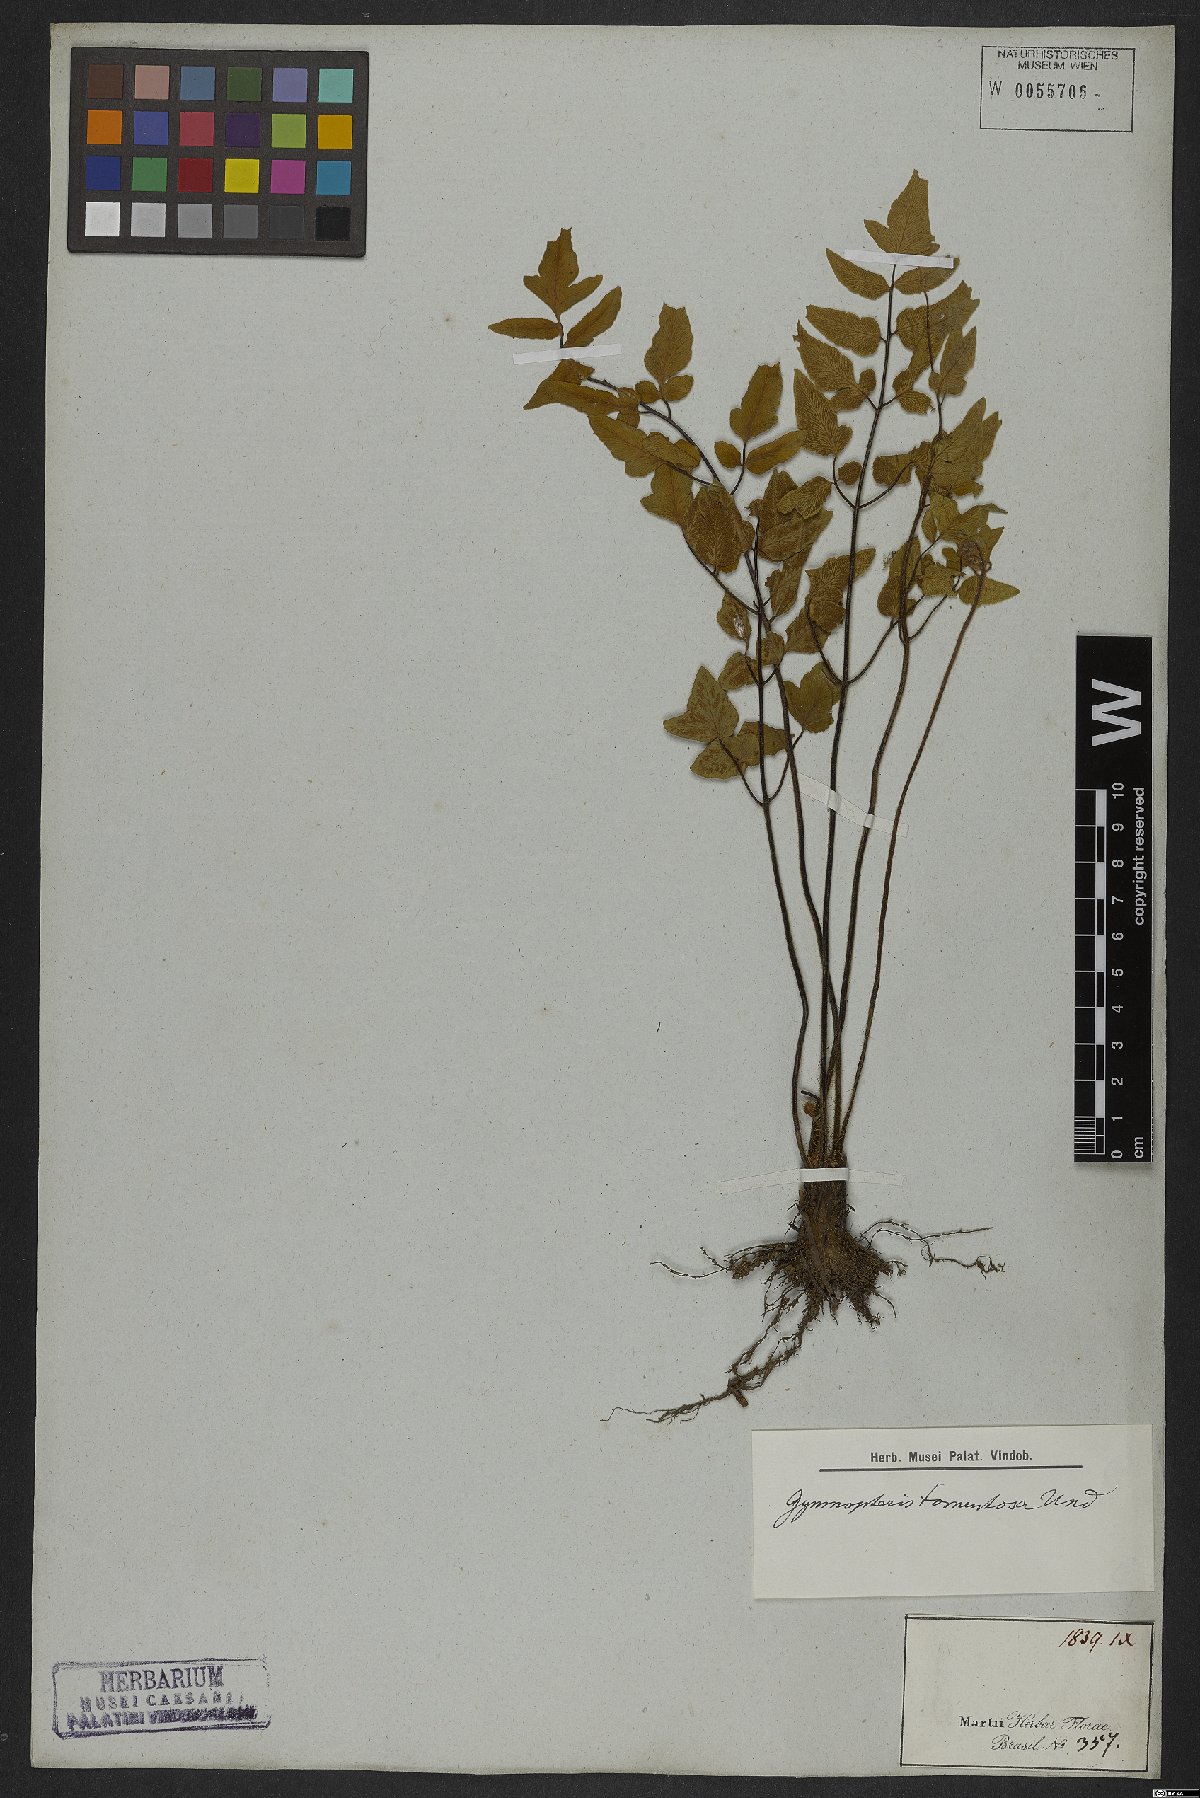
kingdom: Plantae
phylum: Tracheophyta
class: Polypodiopsida
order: Polypodiales
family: Pteridaceae
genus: Hemionitis
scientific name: Hemionitis tomentosa
